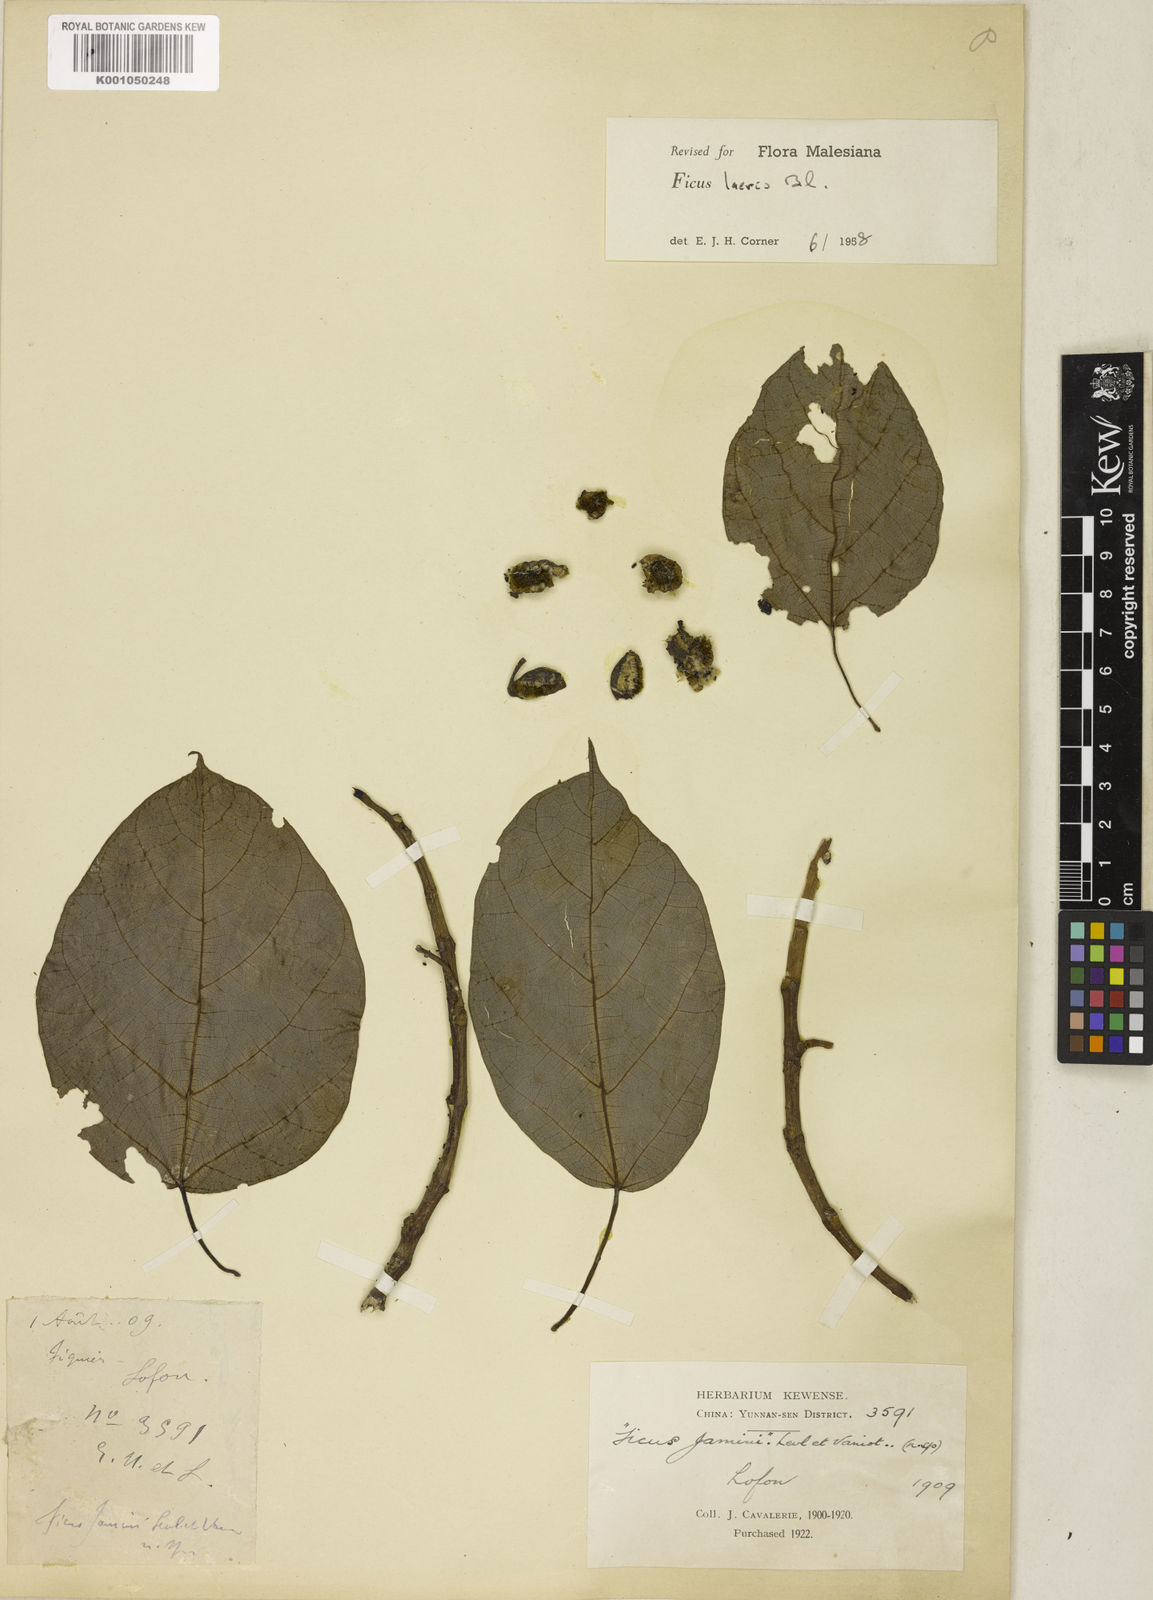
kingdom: Plantae
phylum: Tracheophyta
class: Magnoliopsida
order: Rosales
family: Moraceae
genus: Ficus
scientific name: Ficus laevis
